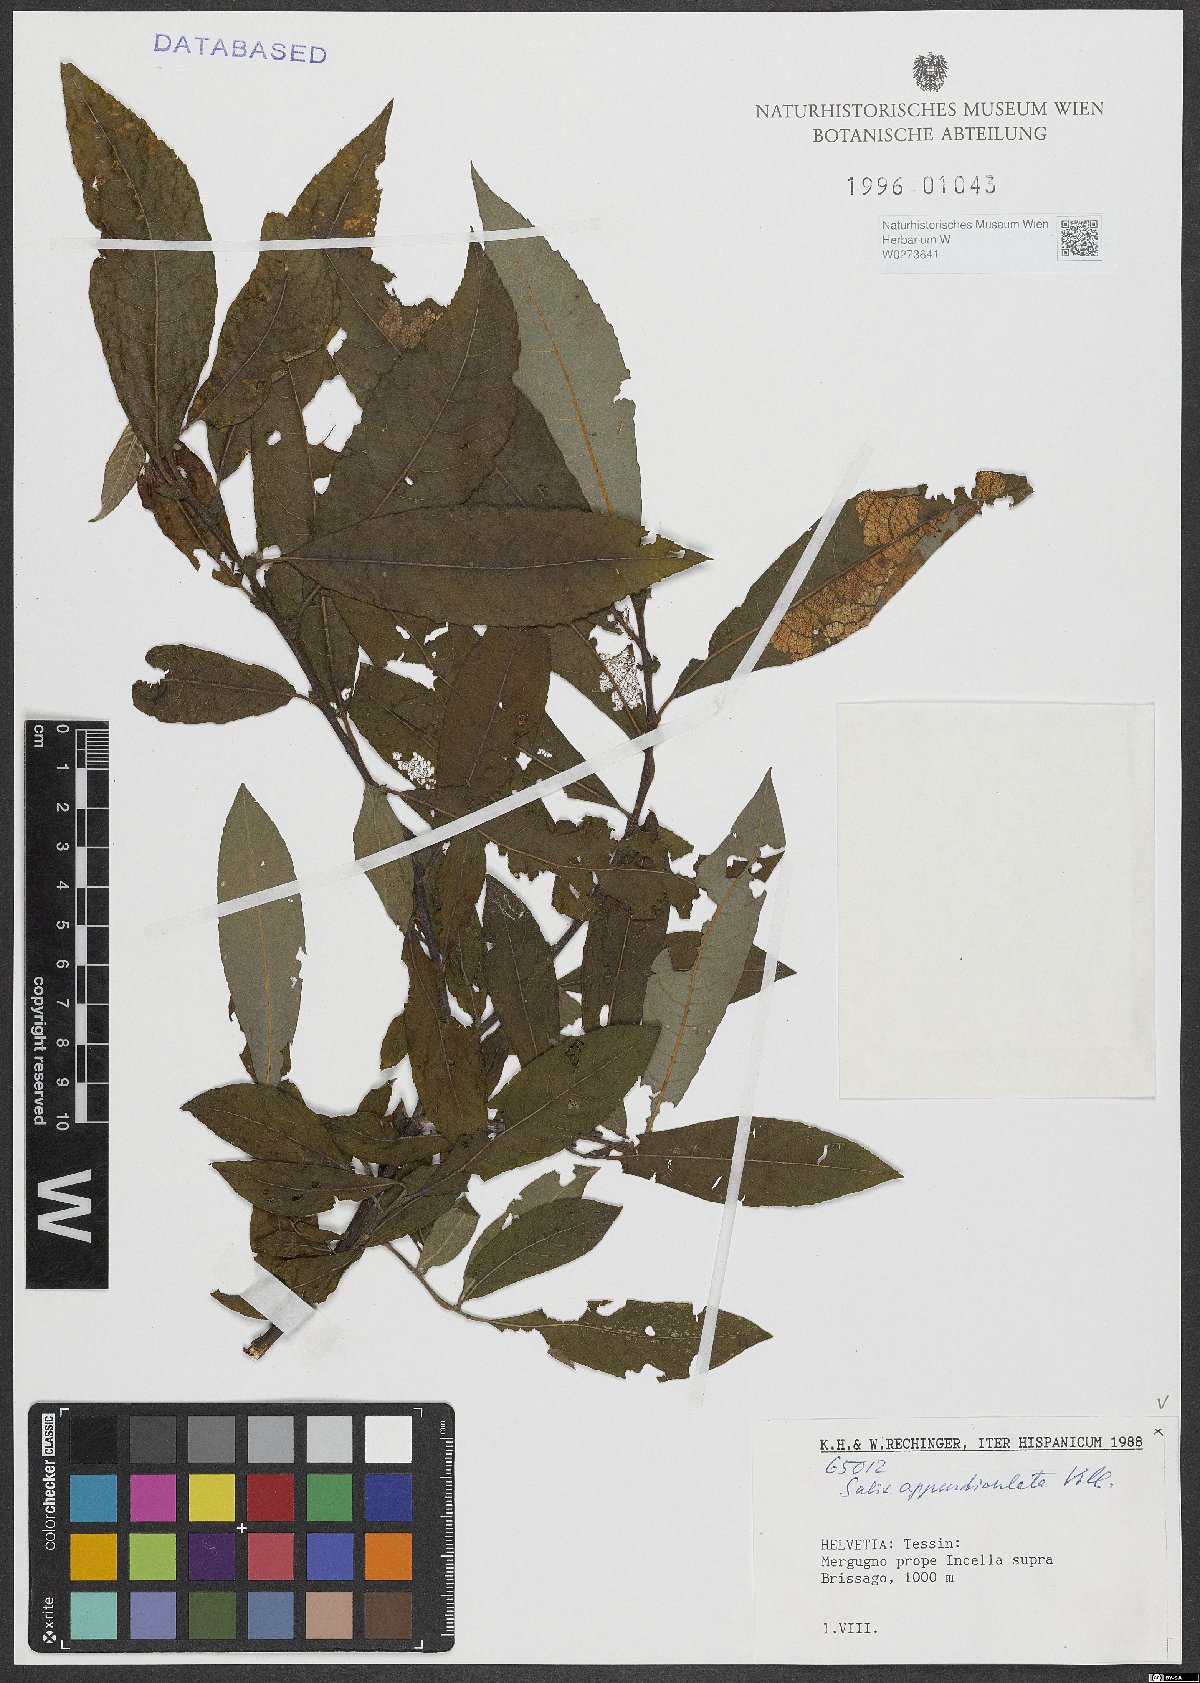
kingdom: Plantae
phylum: Tracheophyta
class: Magnoliopsida
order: Malpighiales
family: Salicaceae
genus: Salix
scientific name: Salix appendiculata
